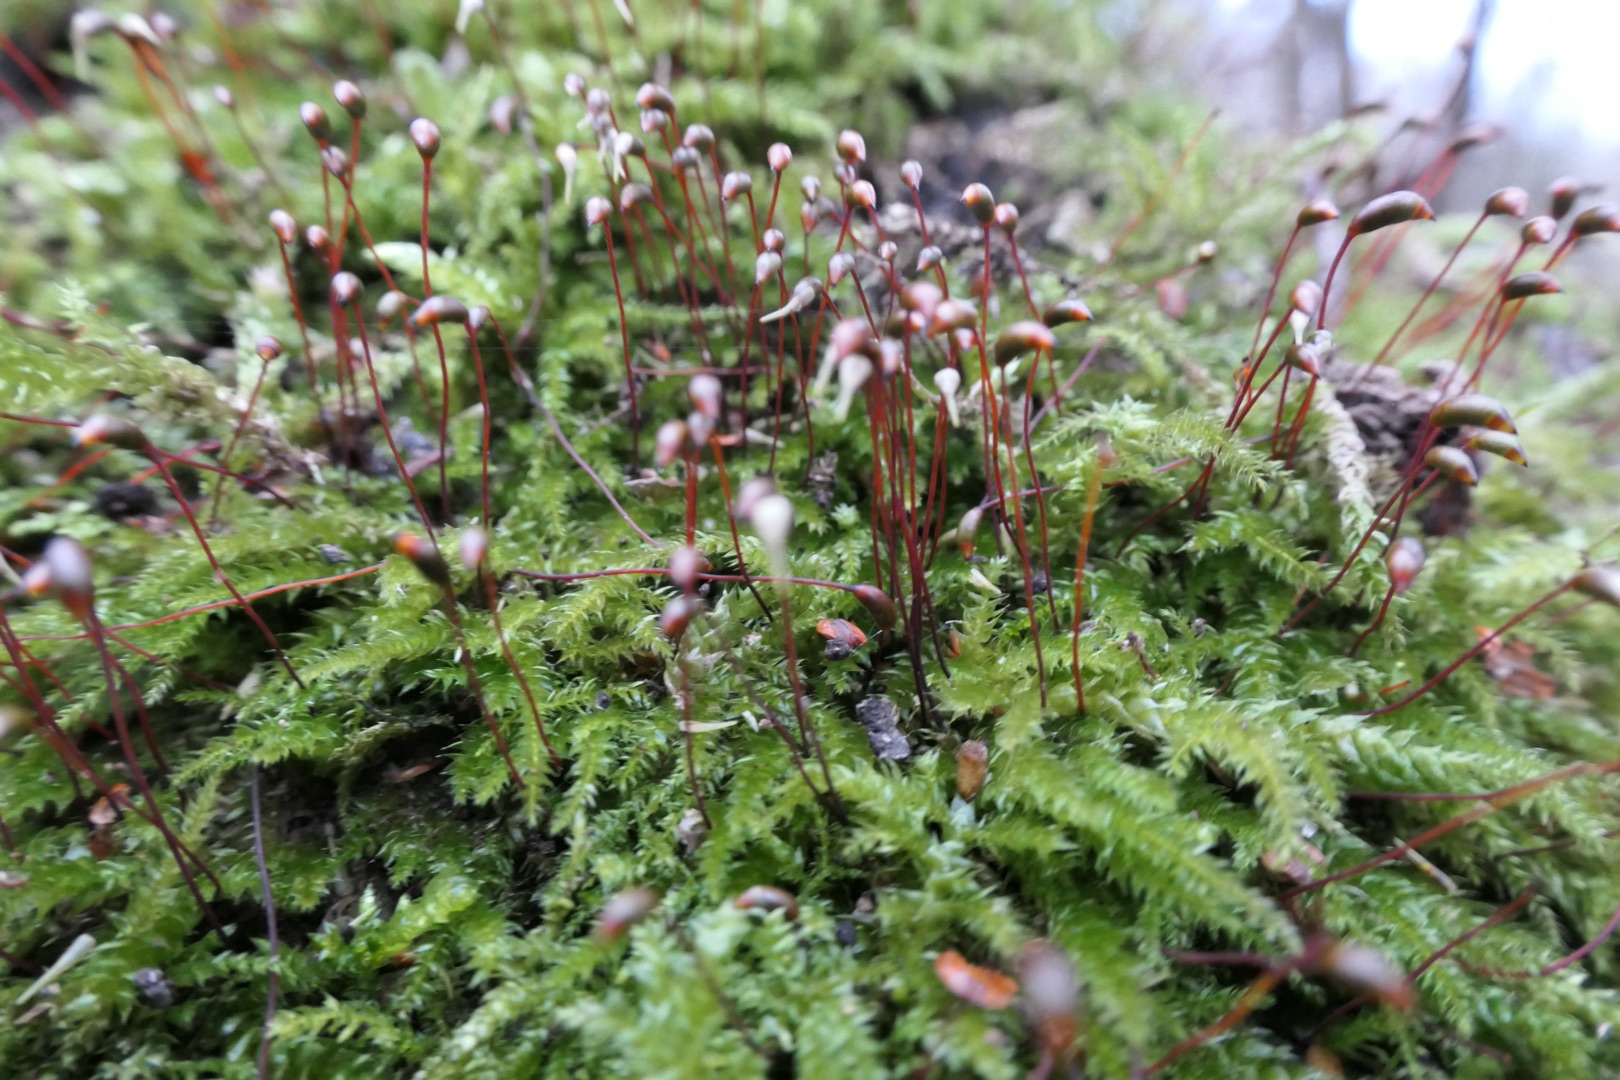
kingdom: Plantae
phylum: Bryophyta
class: Bryopsida
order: Hypnales
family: Brachytheciaceae
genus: Brachythecium
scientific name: Brachythecium rutabulum
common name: Almindelig kortkapsel
